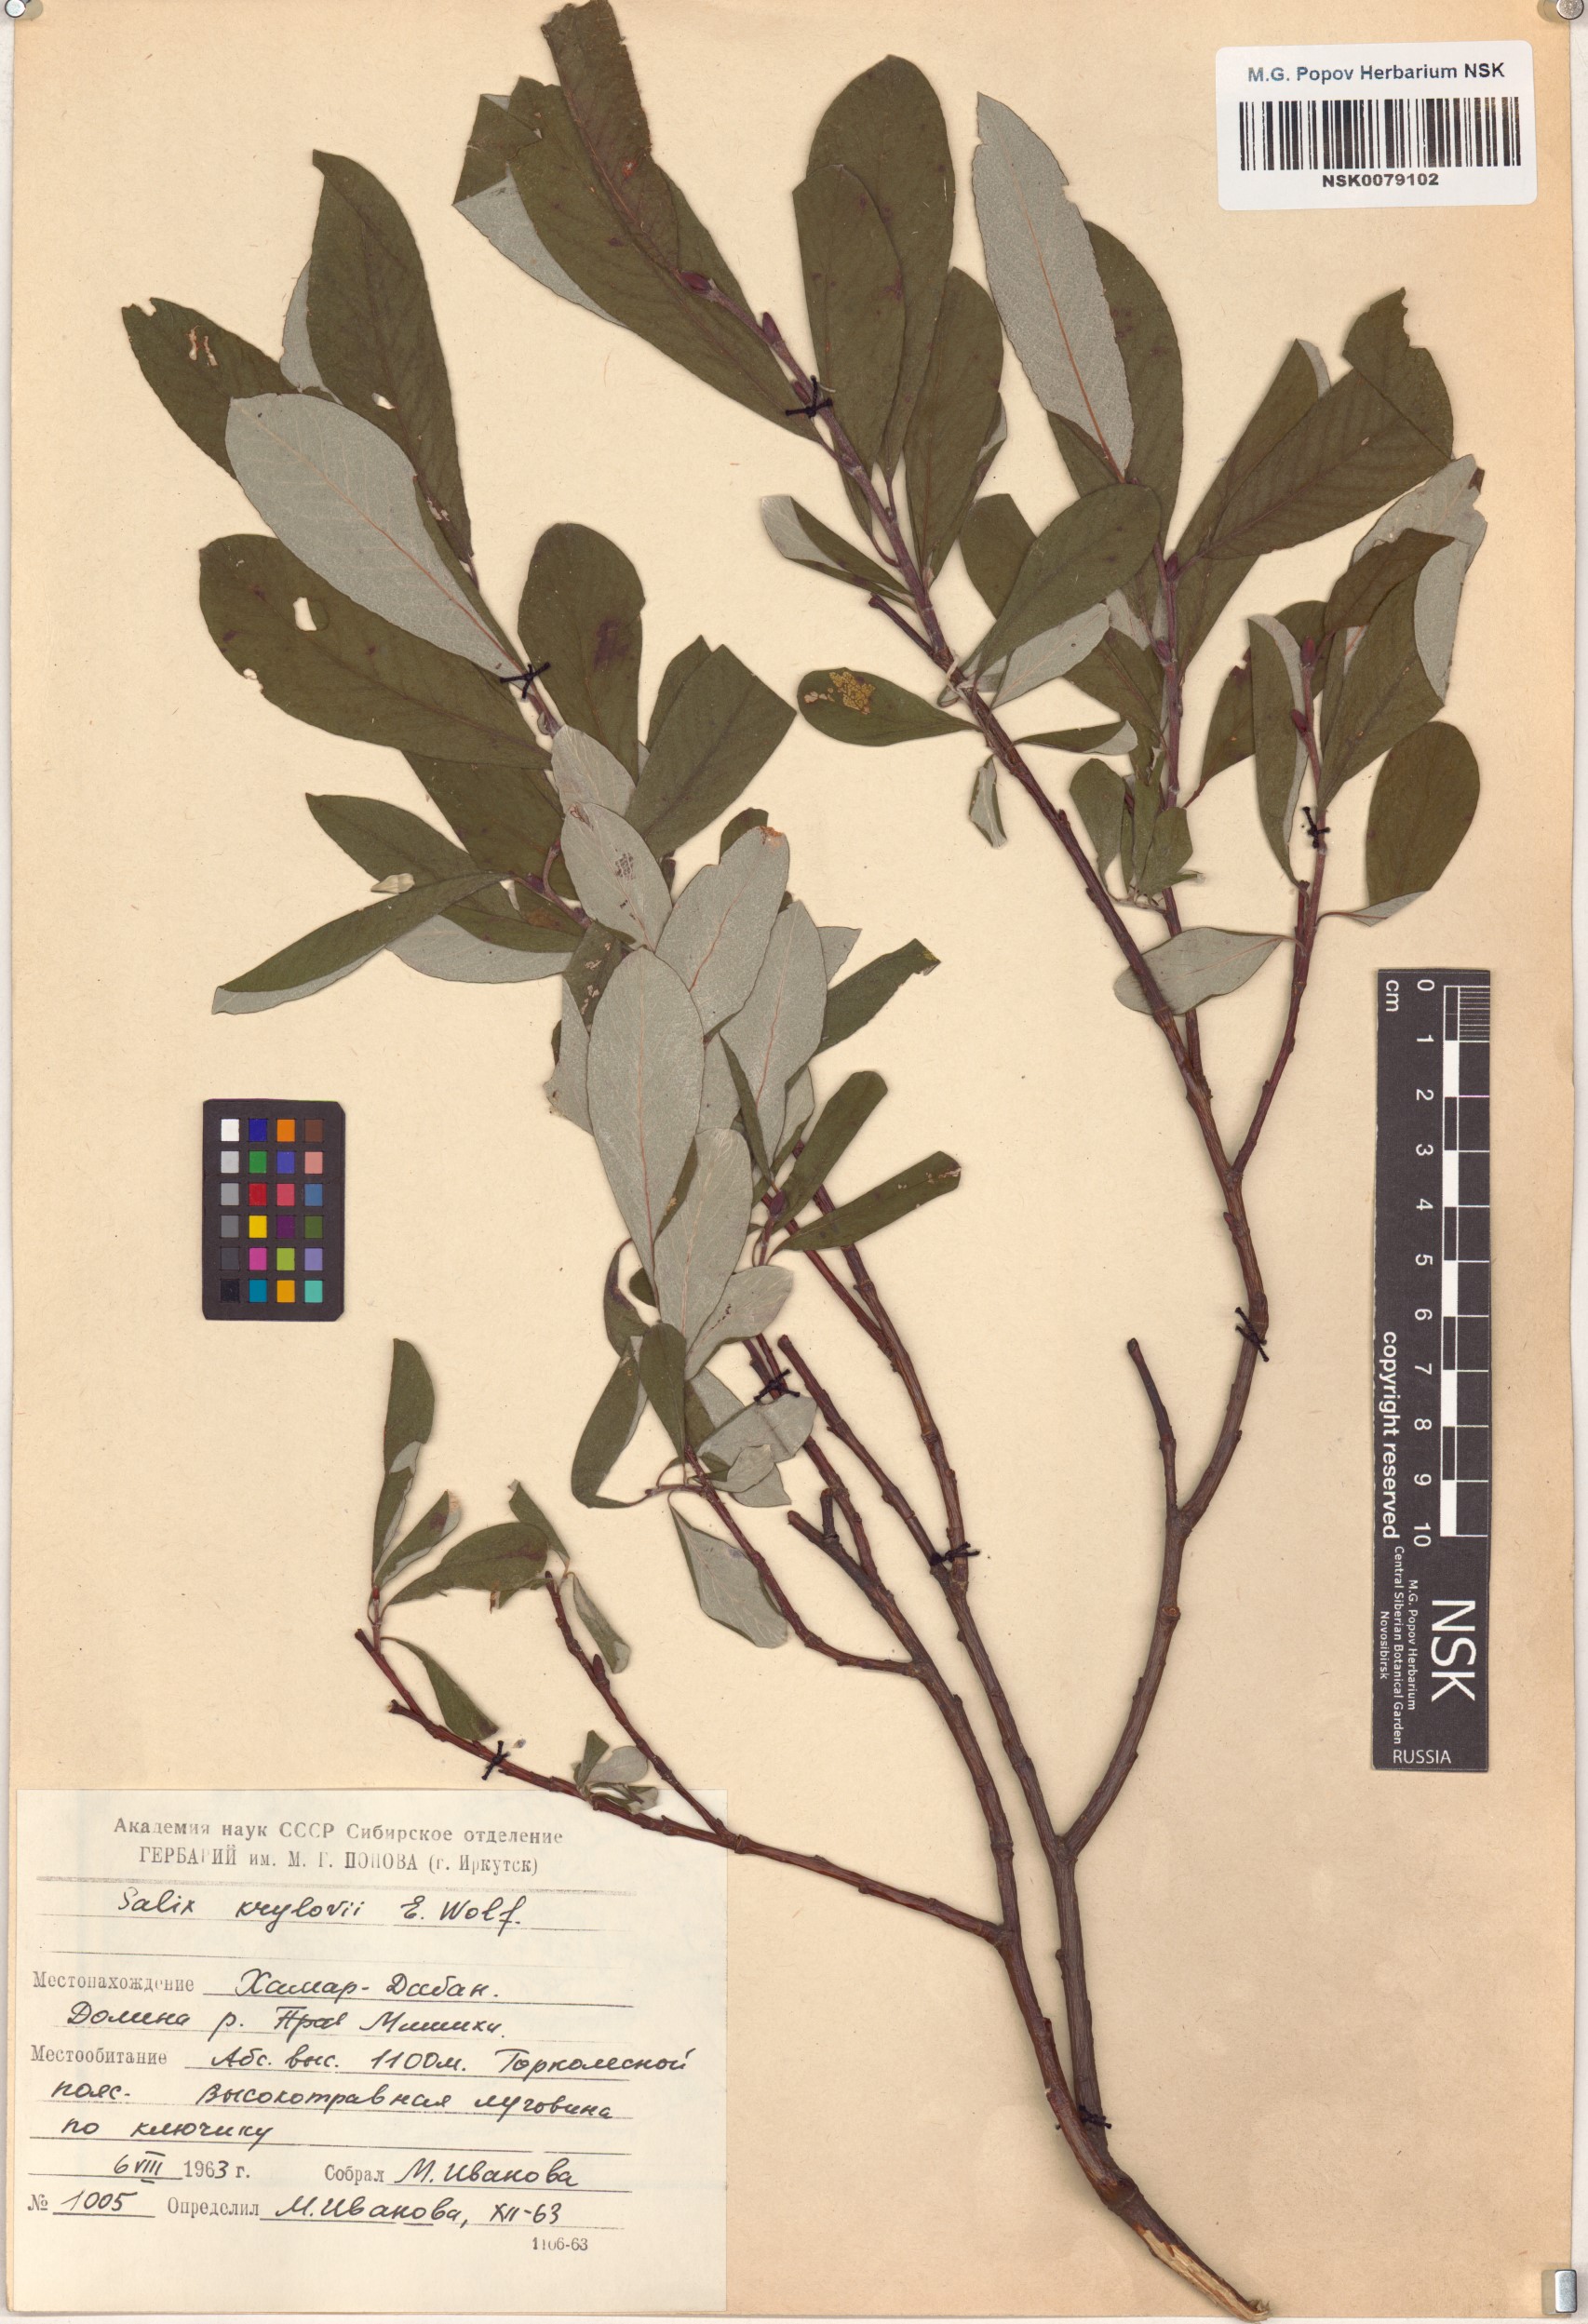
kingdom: Plantae
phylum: Tracheophyta
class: Magnoliopsida
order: Malpighiales
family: Salicaceae
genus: Salix
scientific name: Salix krylovii
